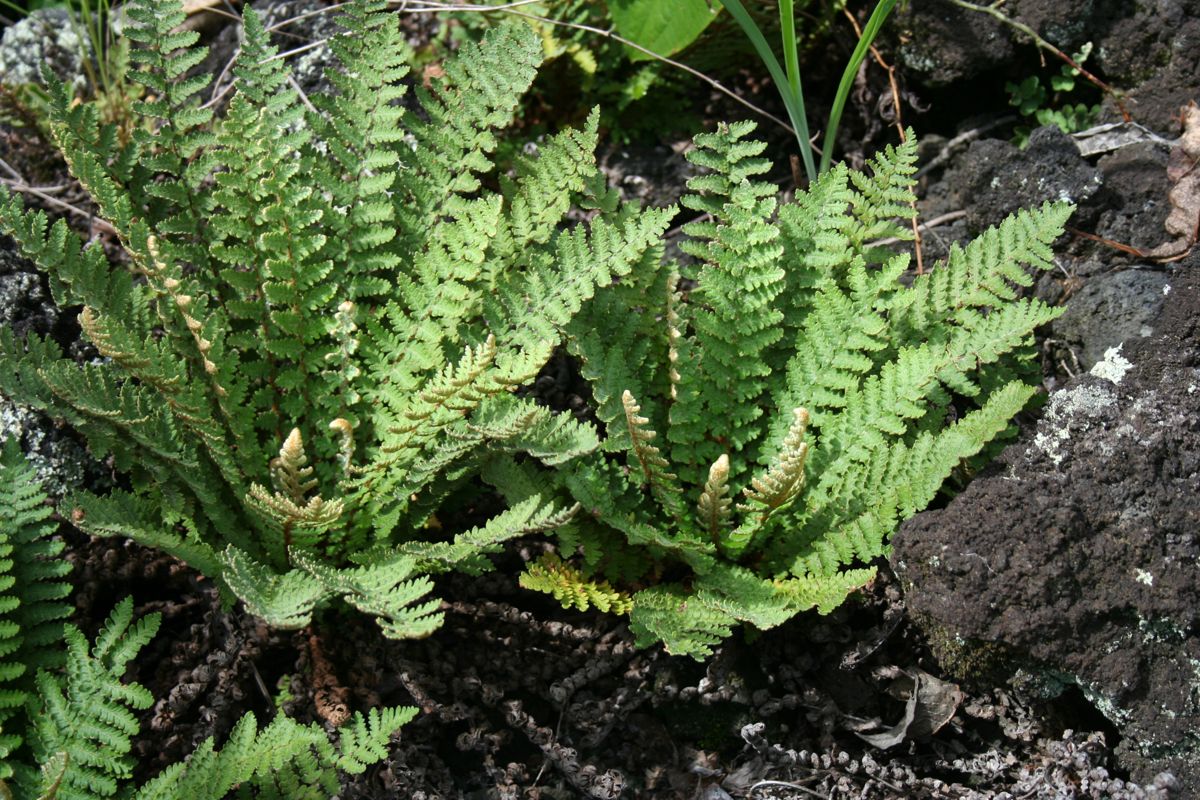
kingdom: Plantae
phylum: Tracheophyta
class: Polypodiopsida
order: Polypodiales
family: Pteridaceae
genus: Notholaena
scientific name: Notholaena brachypus
